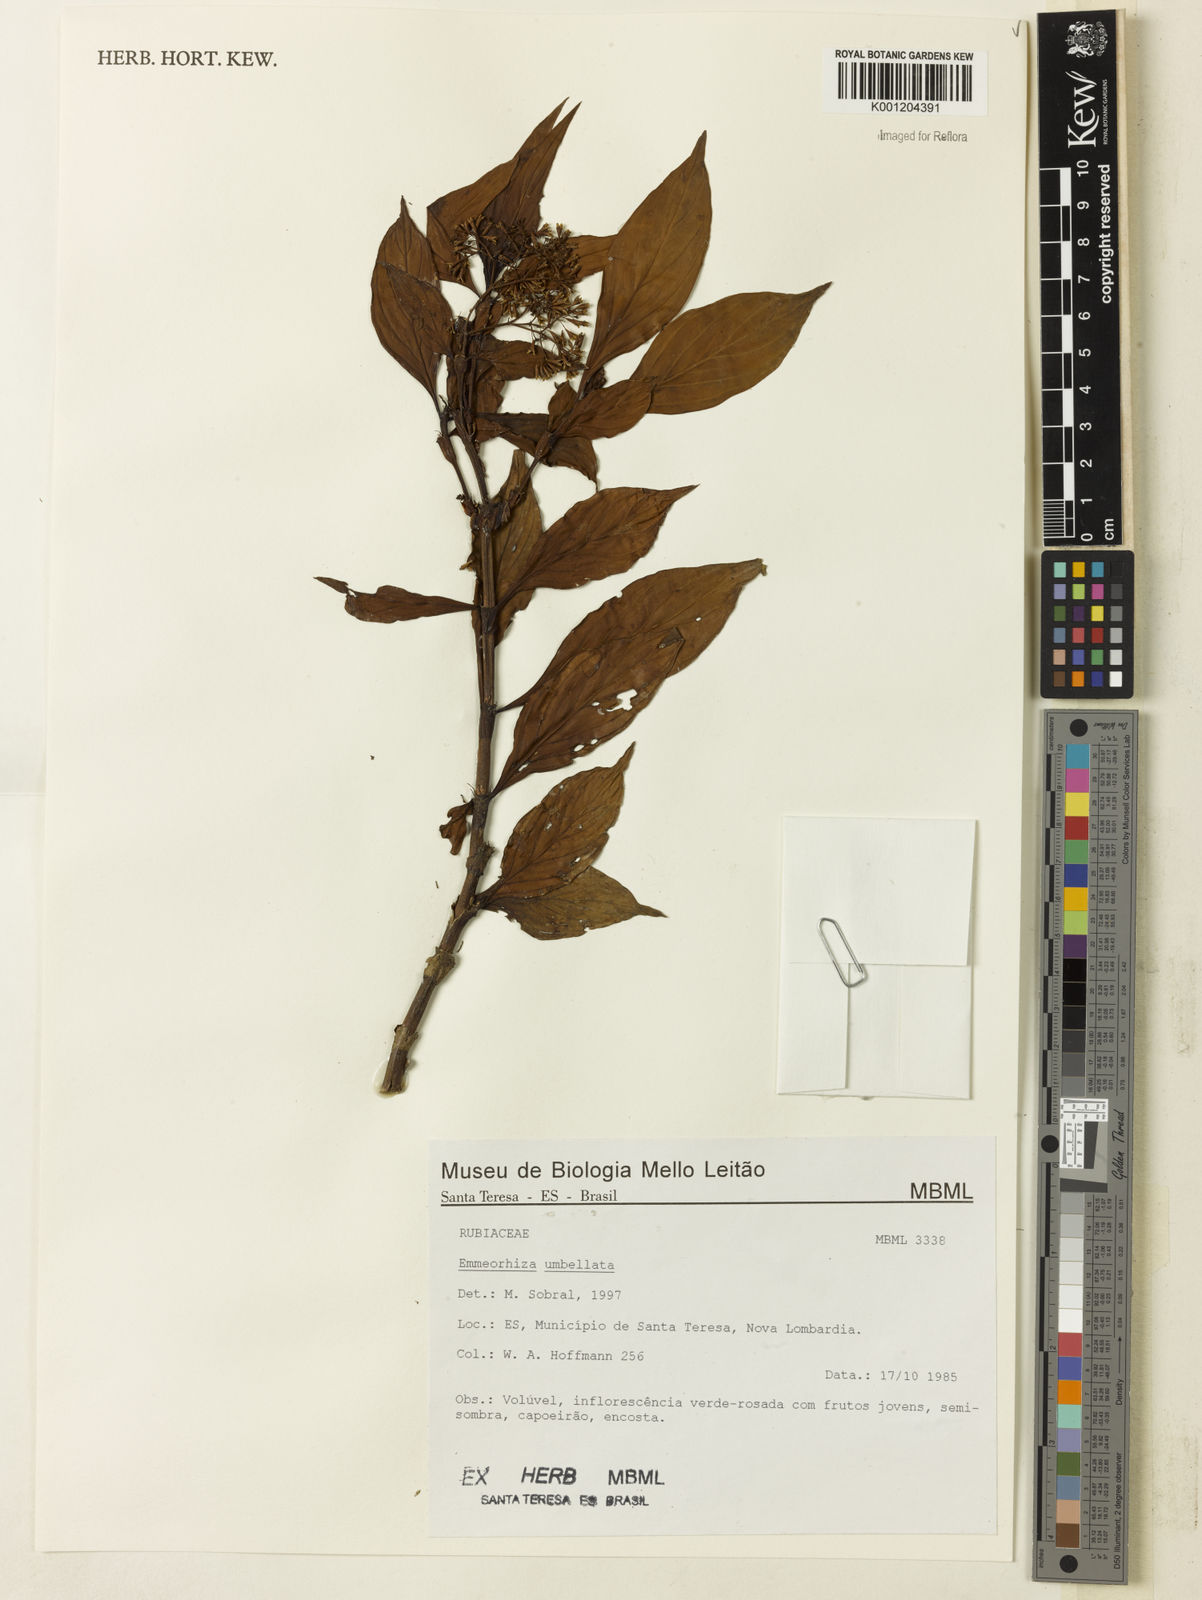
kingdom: Plantae
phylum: Tracheophyta
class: Magnoliopsida
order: Gentianales
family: Rubiaceae
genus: Emmeorhiza
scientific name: Emmeorhiza umbellata
